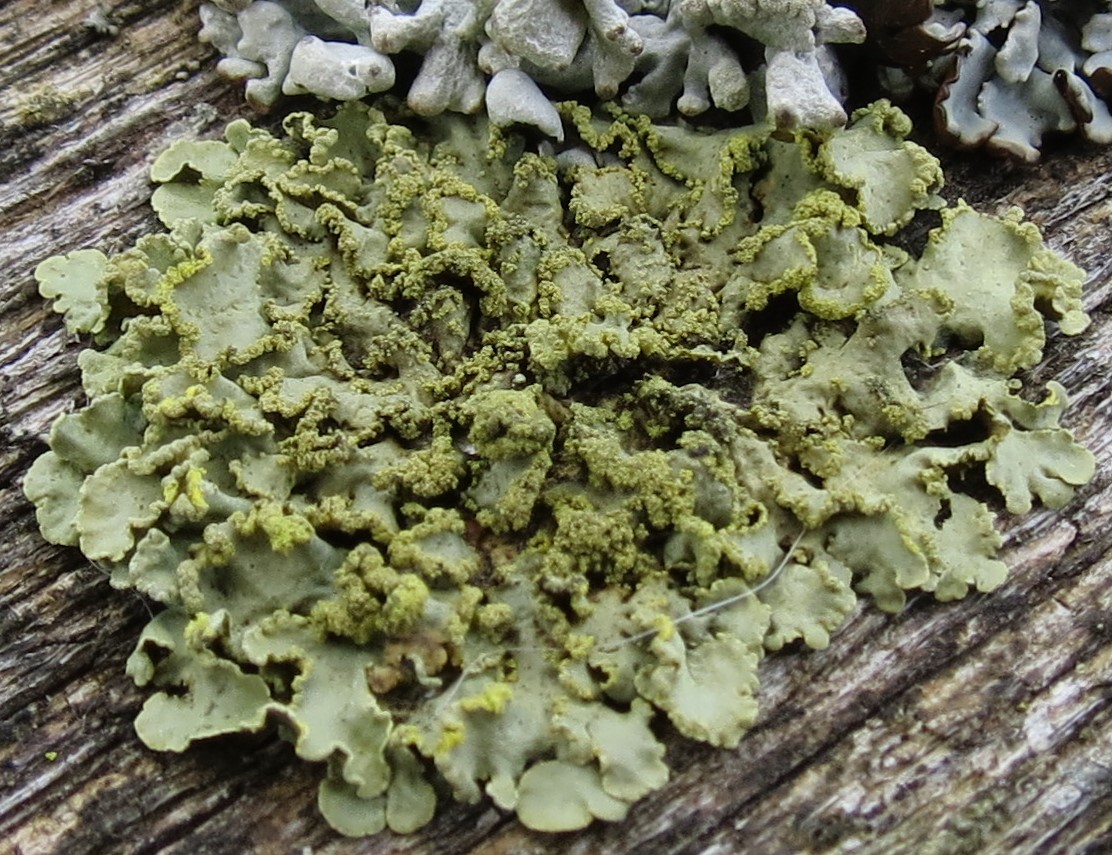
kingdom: Fungi
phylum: Ascomycota
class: Lecanoromycetes
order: Lecanorales
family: Parmeliaceae
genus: Vulpicida
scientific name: Vulpicida pinastri
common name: gul kruslav
